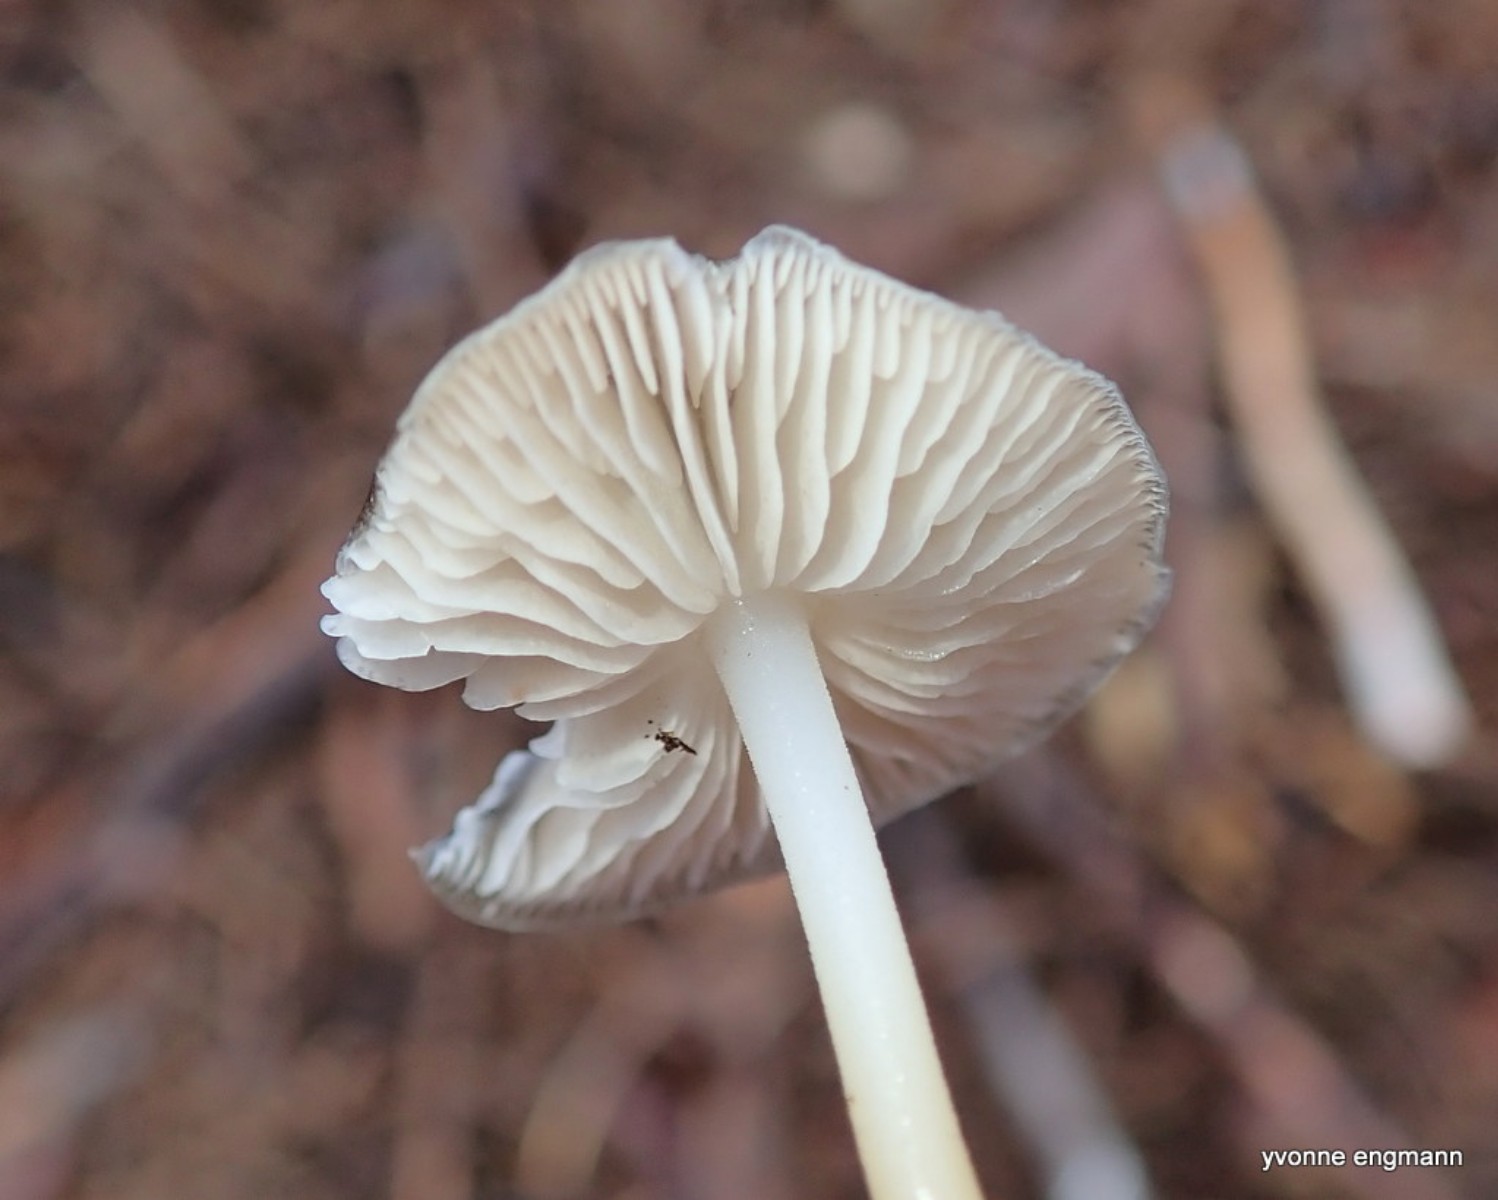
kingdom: Fungi
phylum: Basidiomycota
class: Agaricomycetes
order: Agaricales
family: Physalacriaceae
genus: Strobilurus
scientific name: Strobilurus esculentus
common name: gran-koglehat
